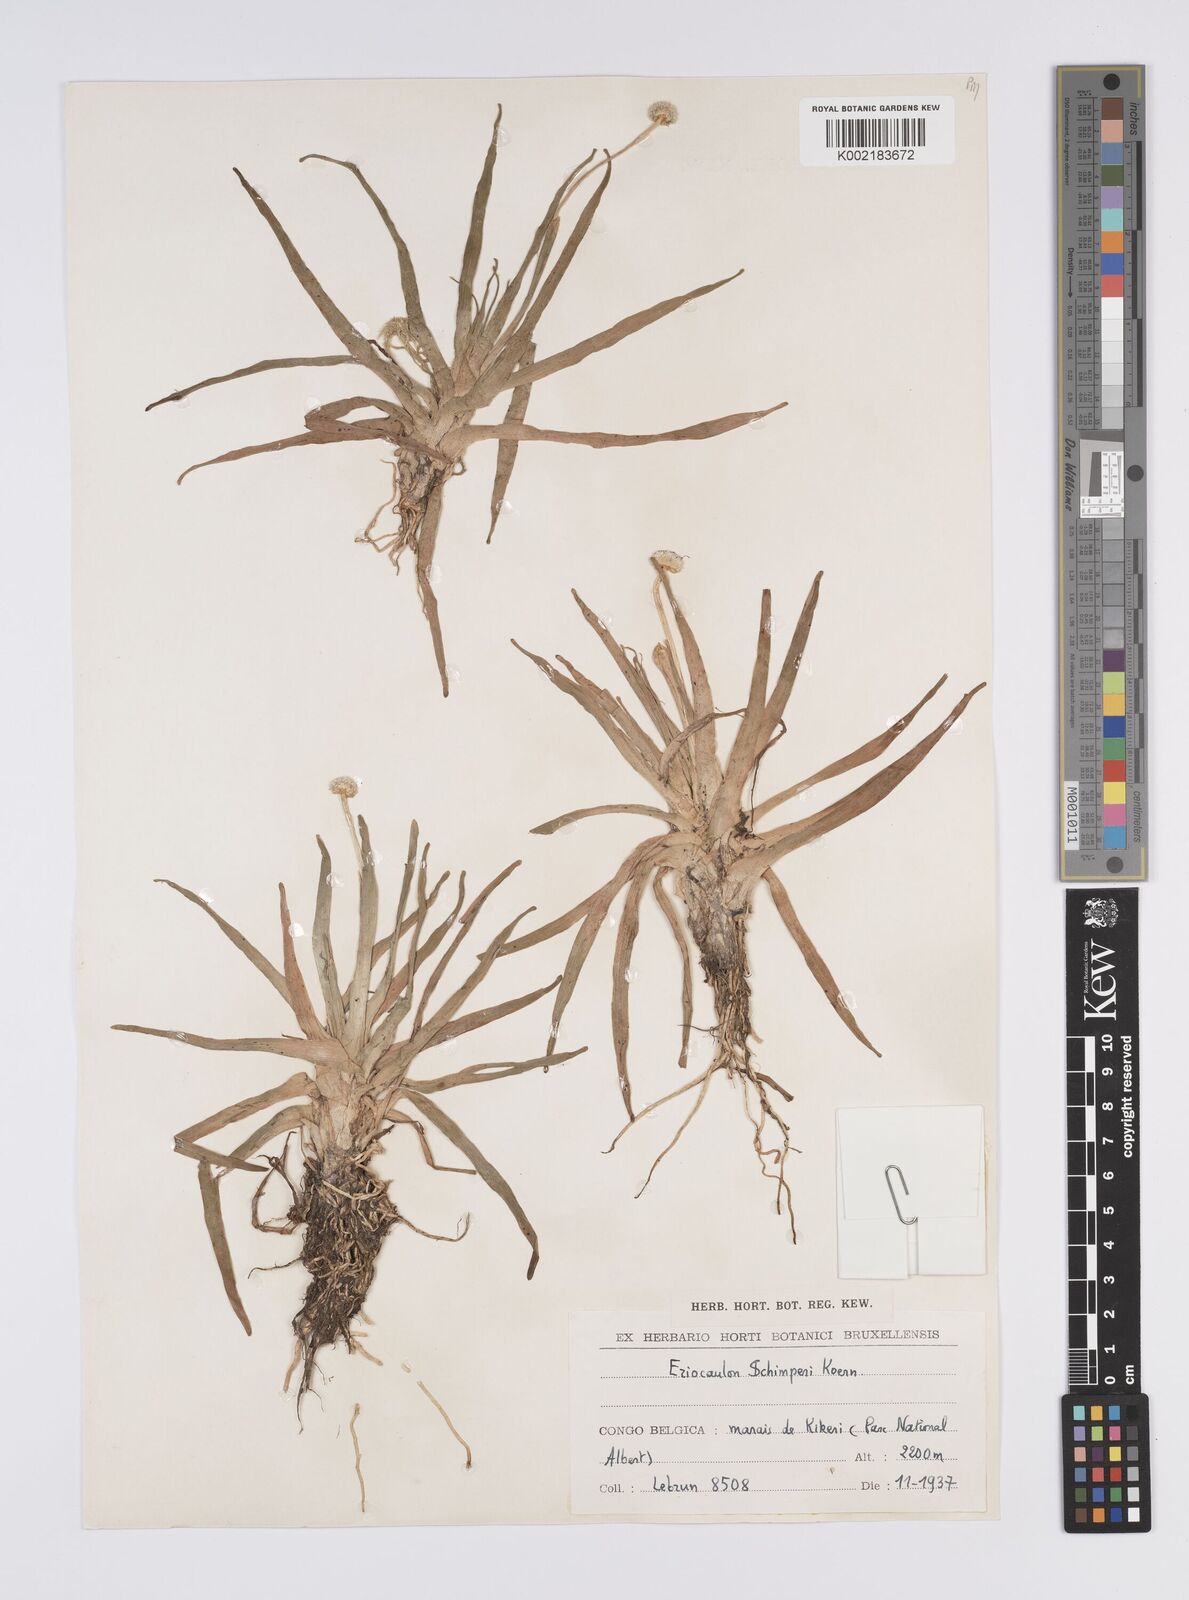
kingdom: Plantae
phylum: Tracheophyta
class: Liliopsida
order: Poales
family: Eriocaulaceae
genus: Eriocaulon
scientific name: Eriocaulon schimperi
